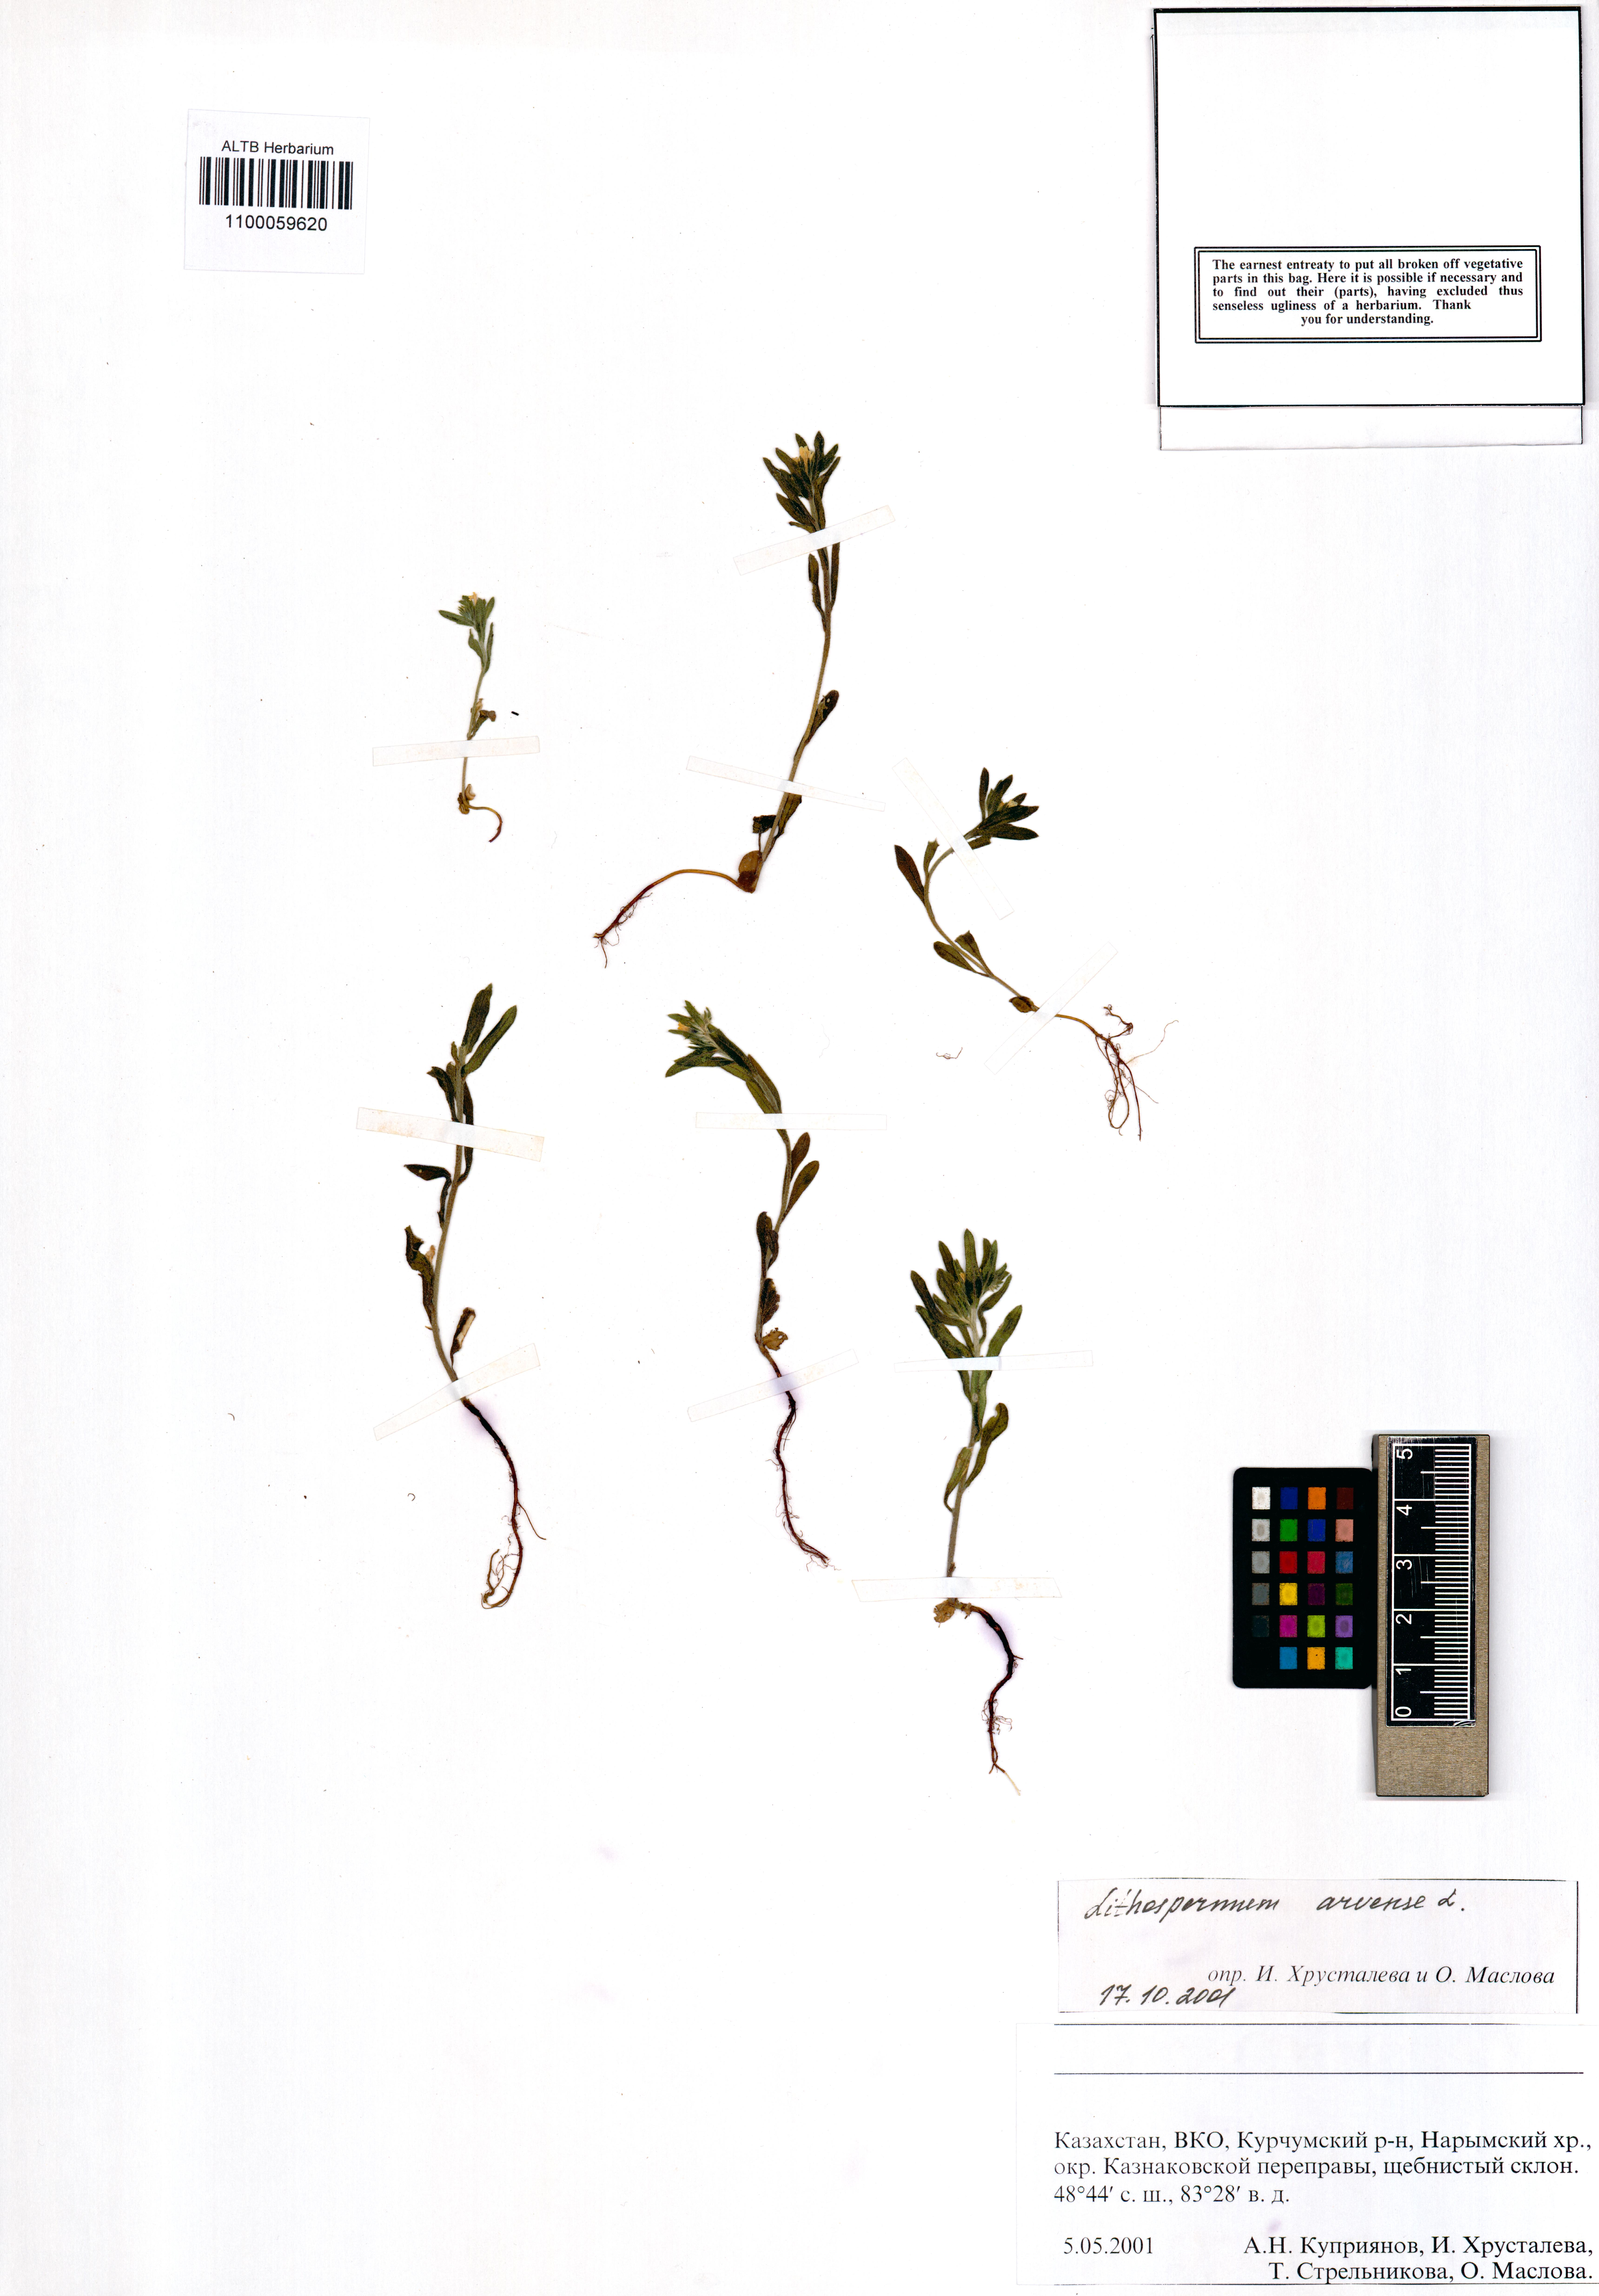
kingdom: Plantae
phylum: Tracheophyta
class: Magnoliopsida
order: Boraginales
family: Boraginaceae
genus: Buglossoides
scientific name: Buglossoides arvensis
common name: Corn gromwell
